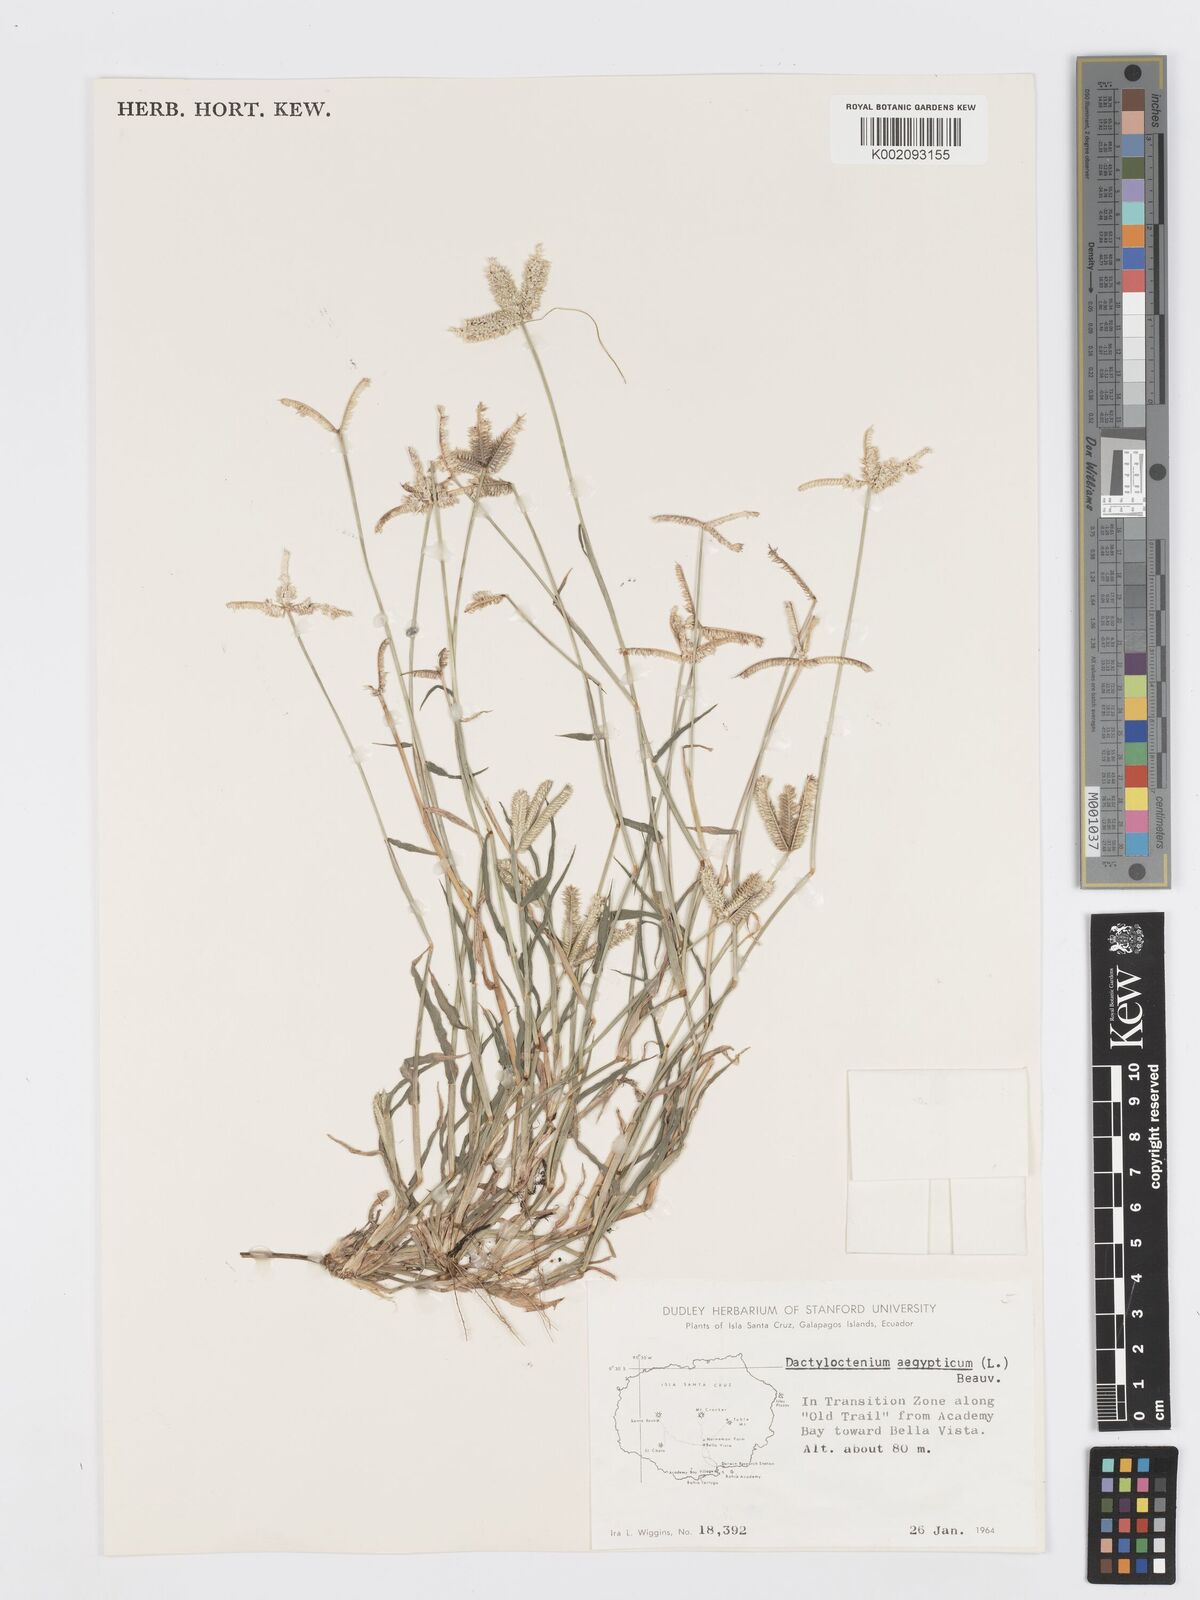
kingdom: Plantae
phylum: Tracheophyta
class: Liliopsida
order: Poales
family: Poaceae
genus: Dactyloctenium
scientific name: Dactyloctenium aegyptium
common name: Egyptian grass
